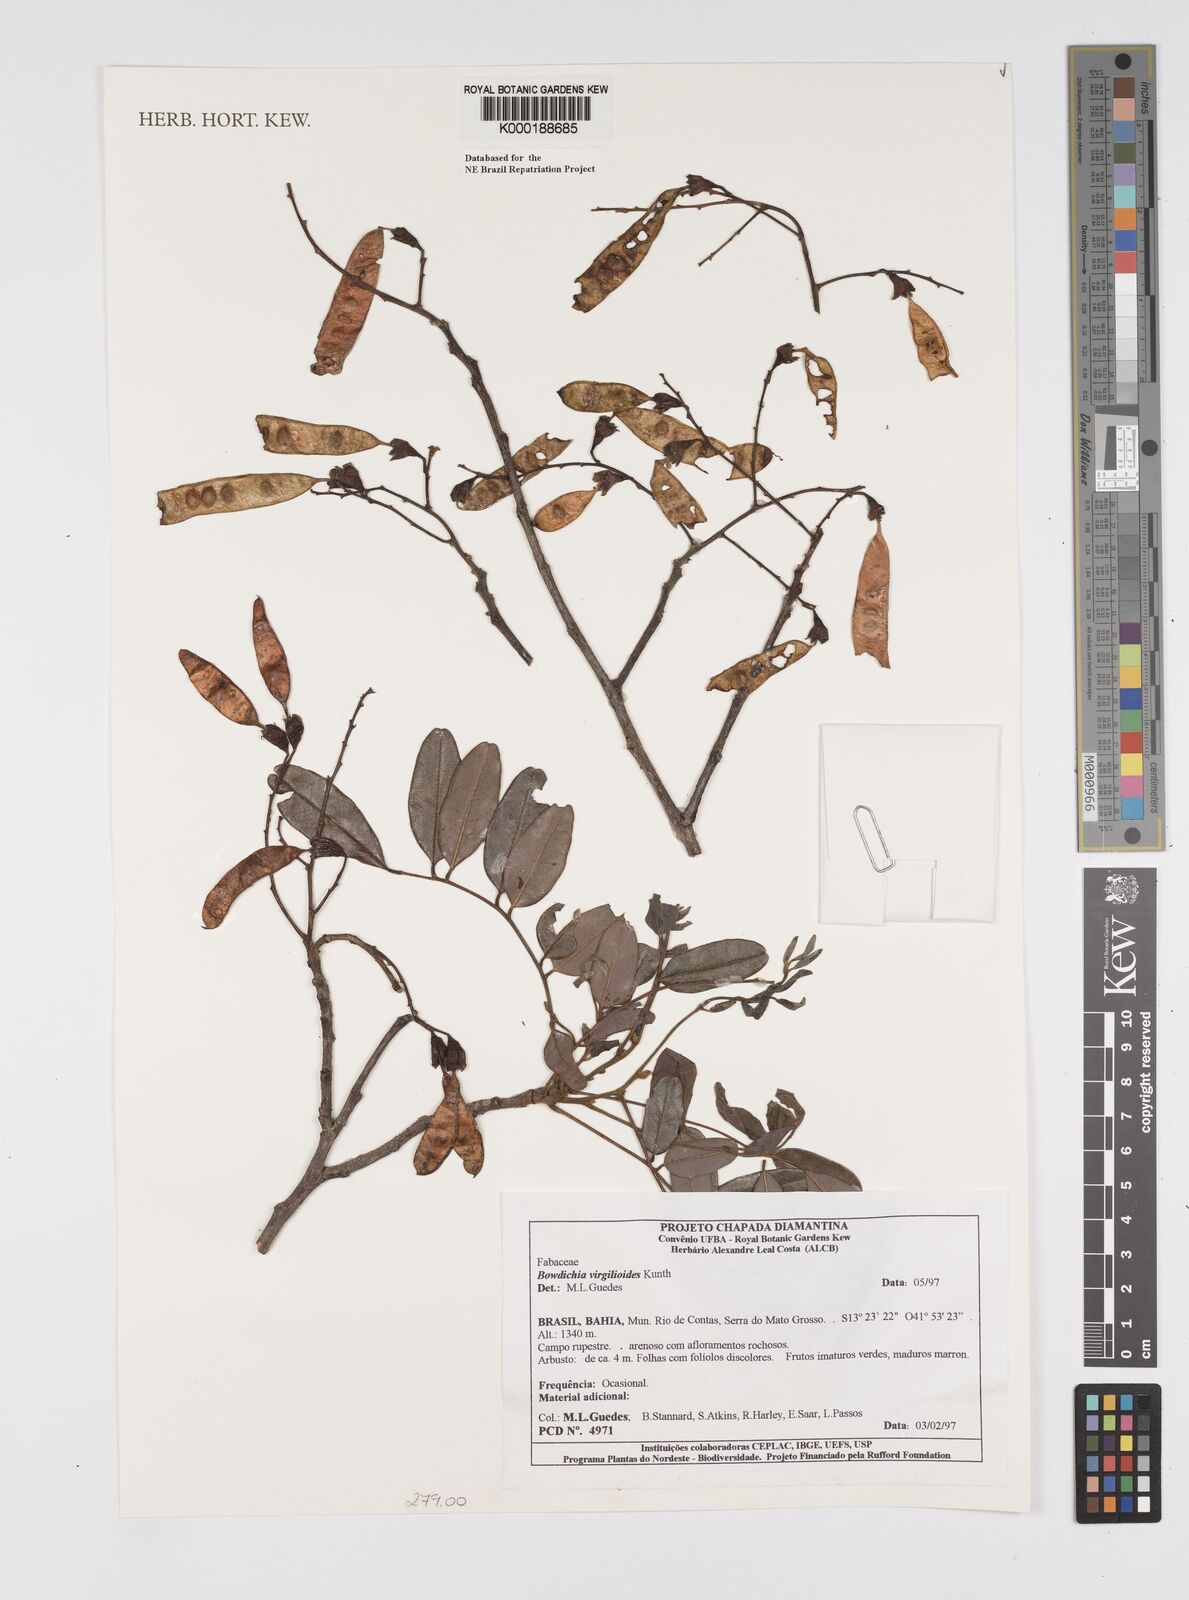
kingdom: Plantae
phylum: Tracheophyta
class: Magnoliopsida
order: Fabales
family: Fabaceae
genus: Bowdichia
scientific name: Bowdichia virgilioides
